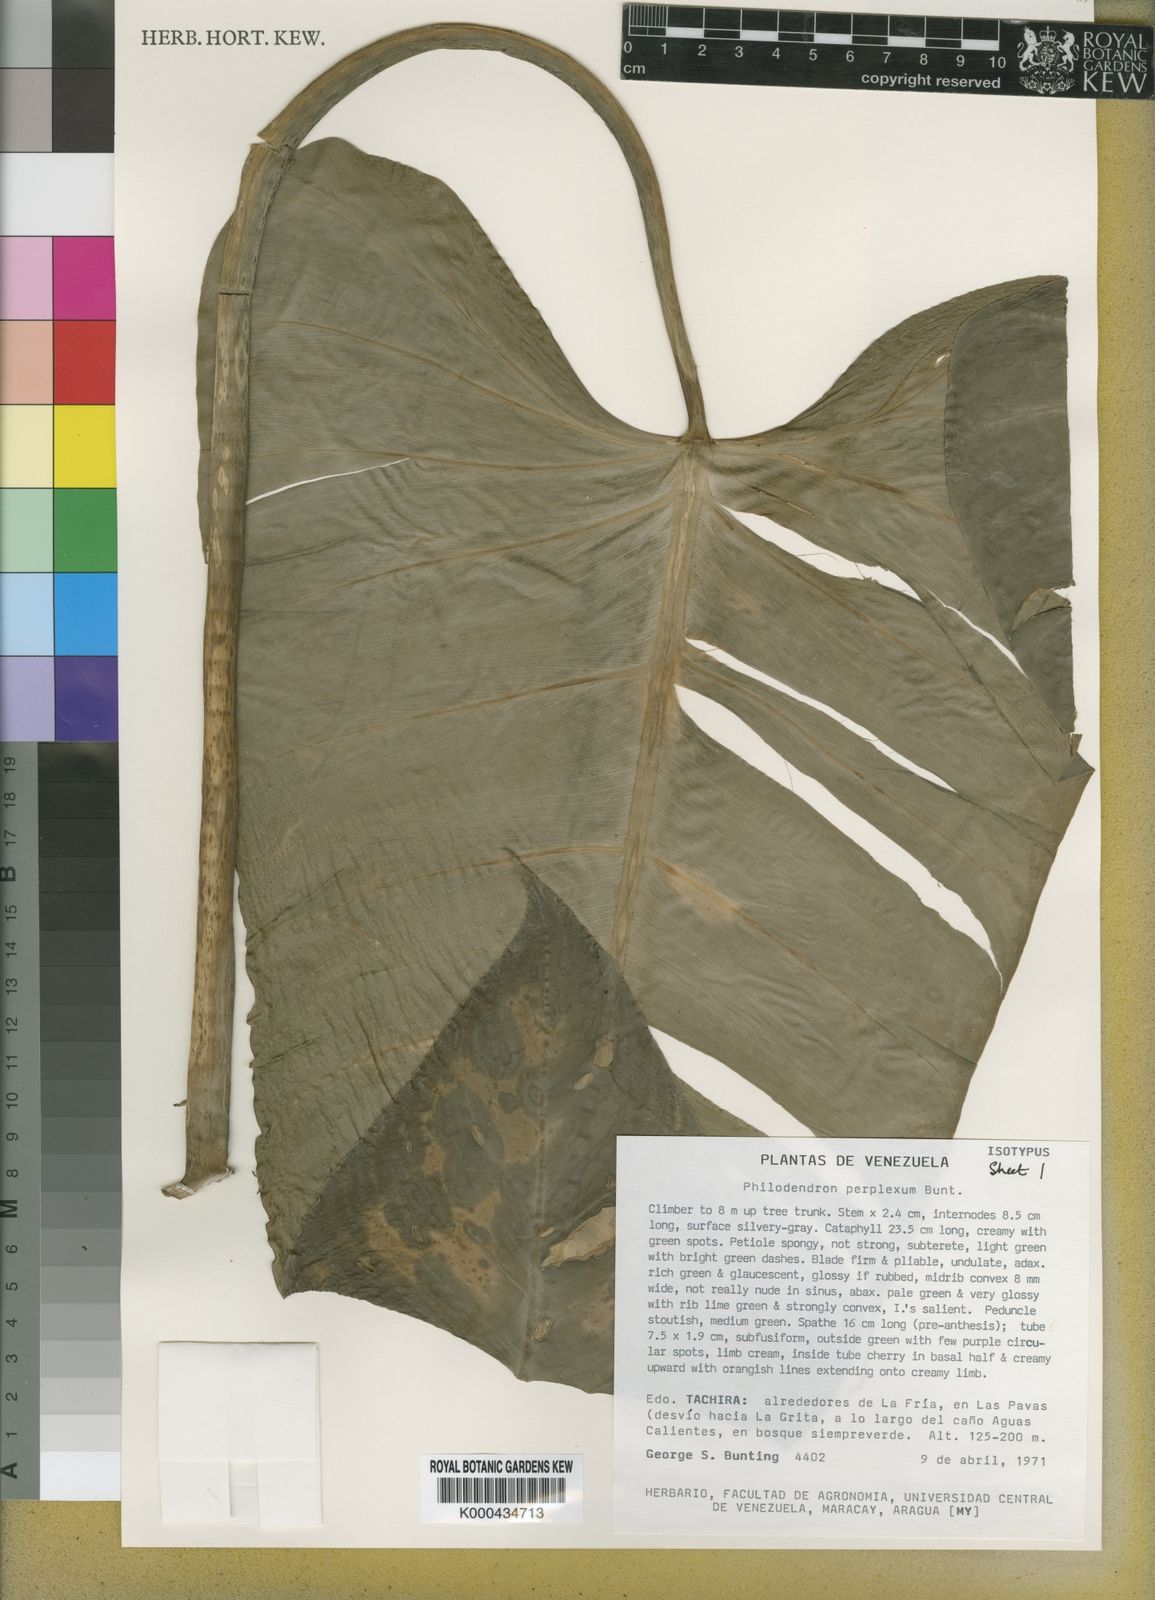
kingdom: Plantae
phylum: Tracheophyta
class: Liliopsida
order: Alismatales
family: Araceae
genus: Philodendron
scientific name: Philodendron perplexum
